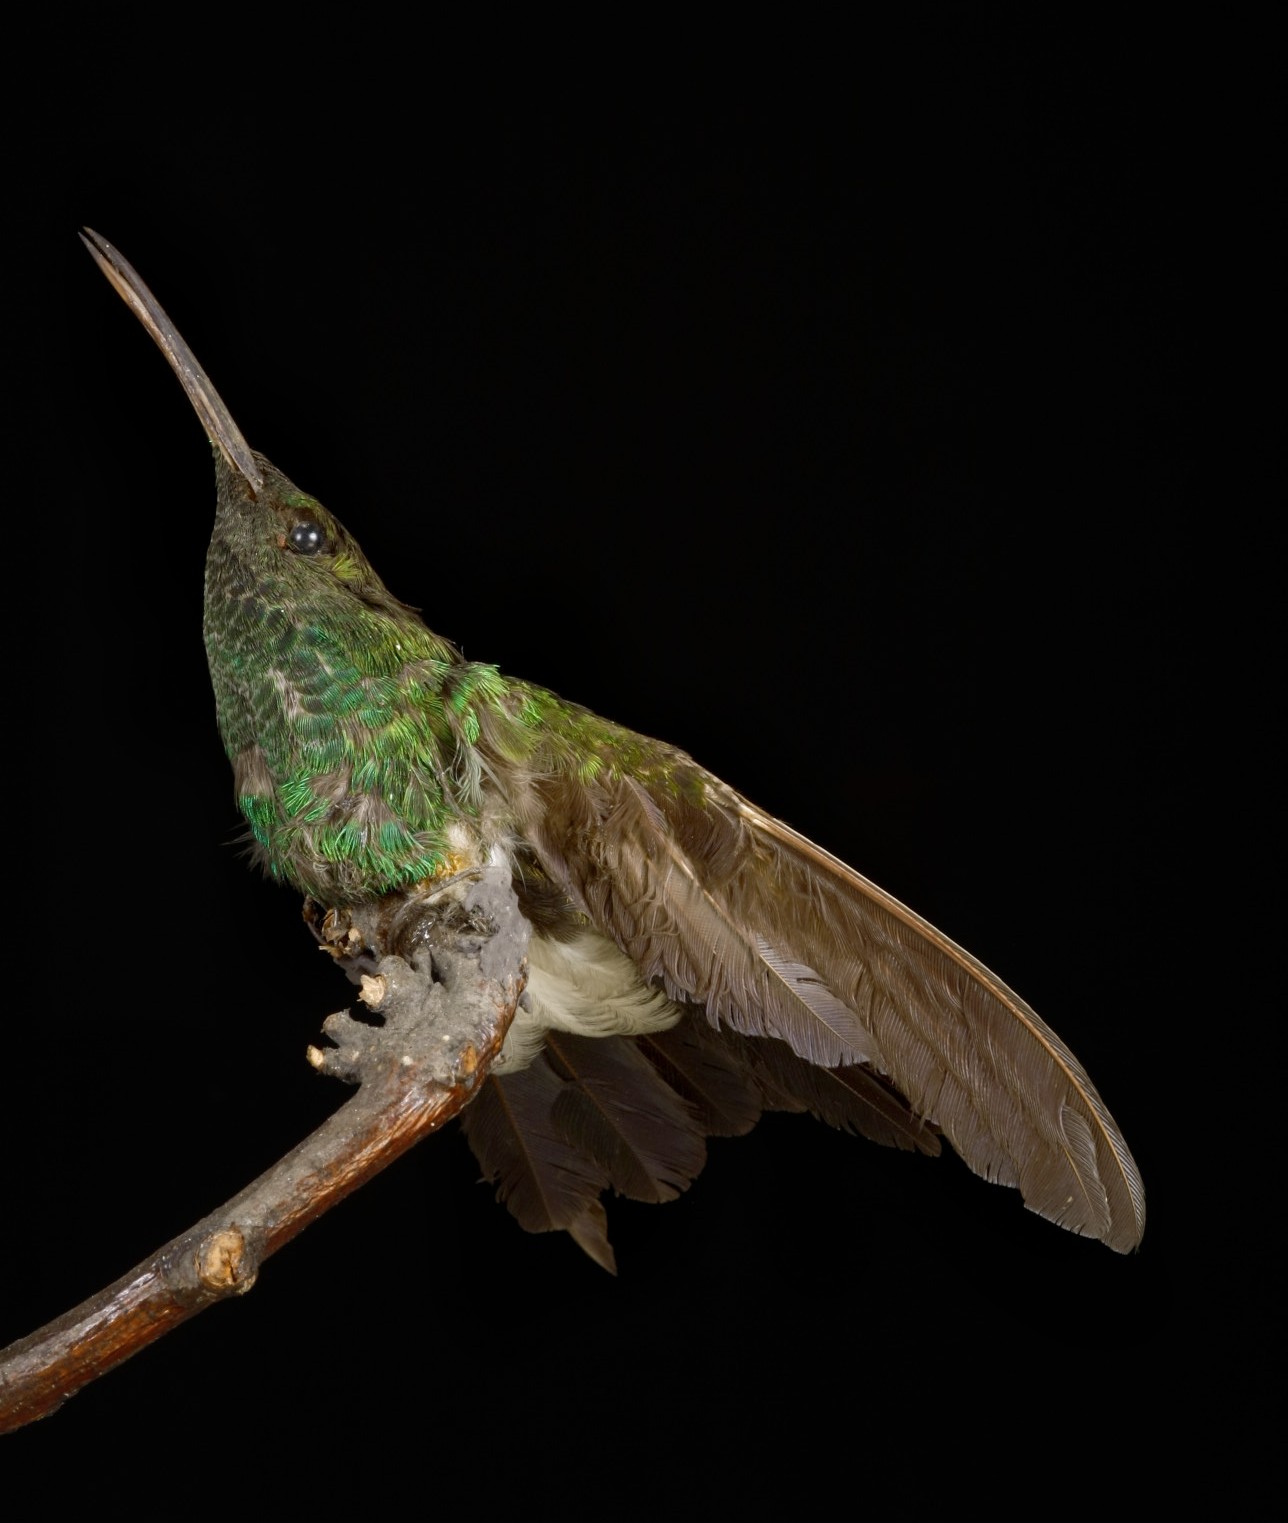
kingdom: Animalia
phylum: Chordata
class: Aves
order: Apodiformes
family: Trochilidae
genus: Chalybura
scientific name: Chalybura urochrysia
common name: Bronze-tailed plumeleteer
